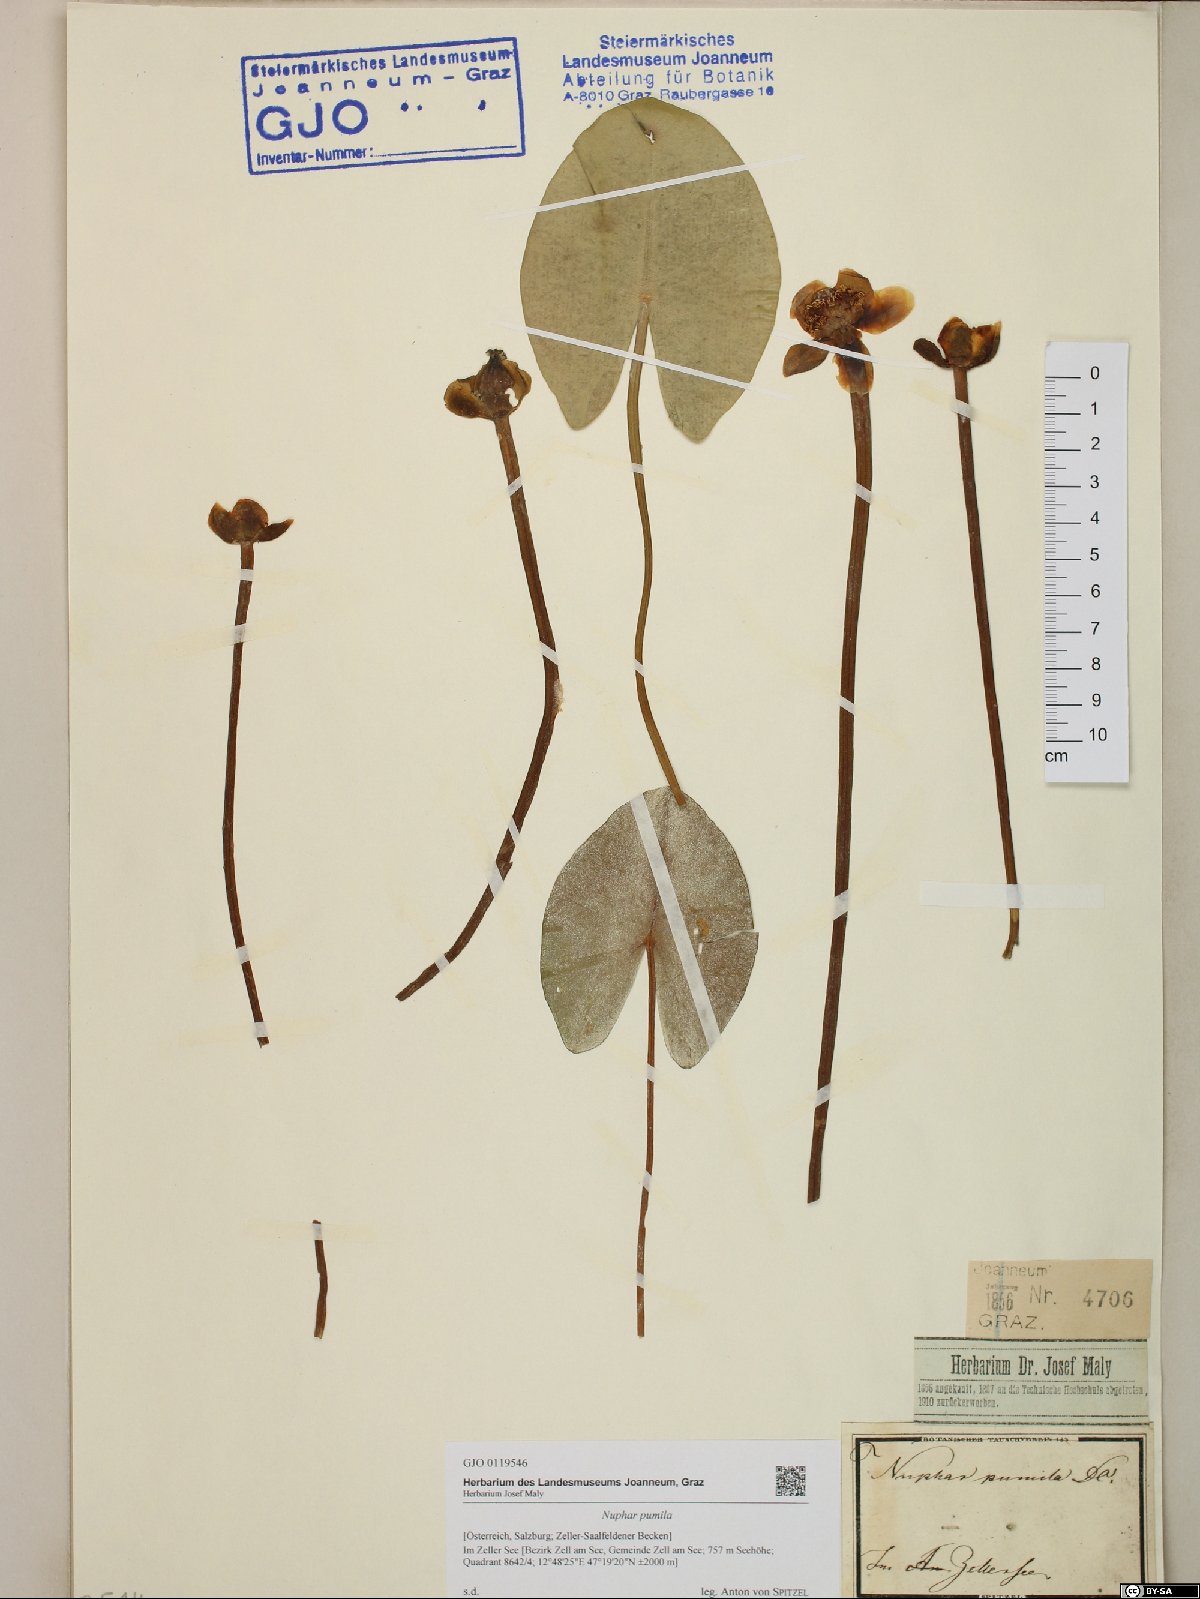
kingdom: Plantae
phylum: Tracheophyta
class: Magnoliopsida
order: Nymphaeales
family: Nymphaeaceae
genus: Nuphar
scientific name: Nuphar pumila
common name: Least water-lily
